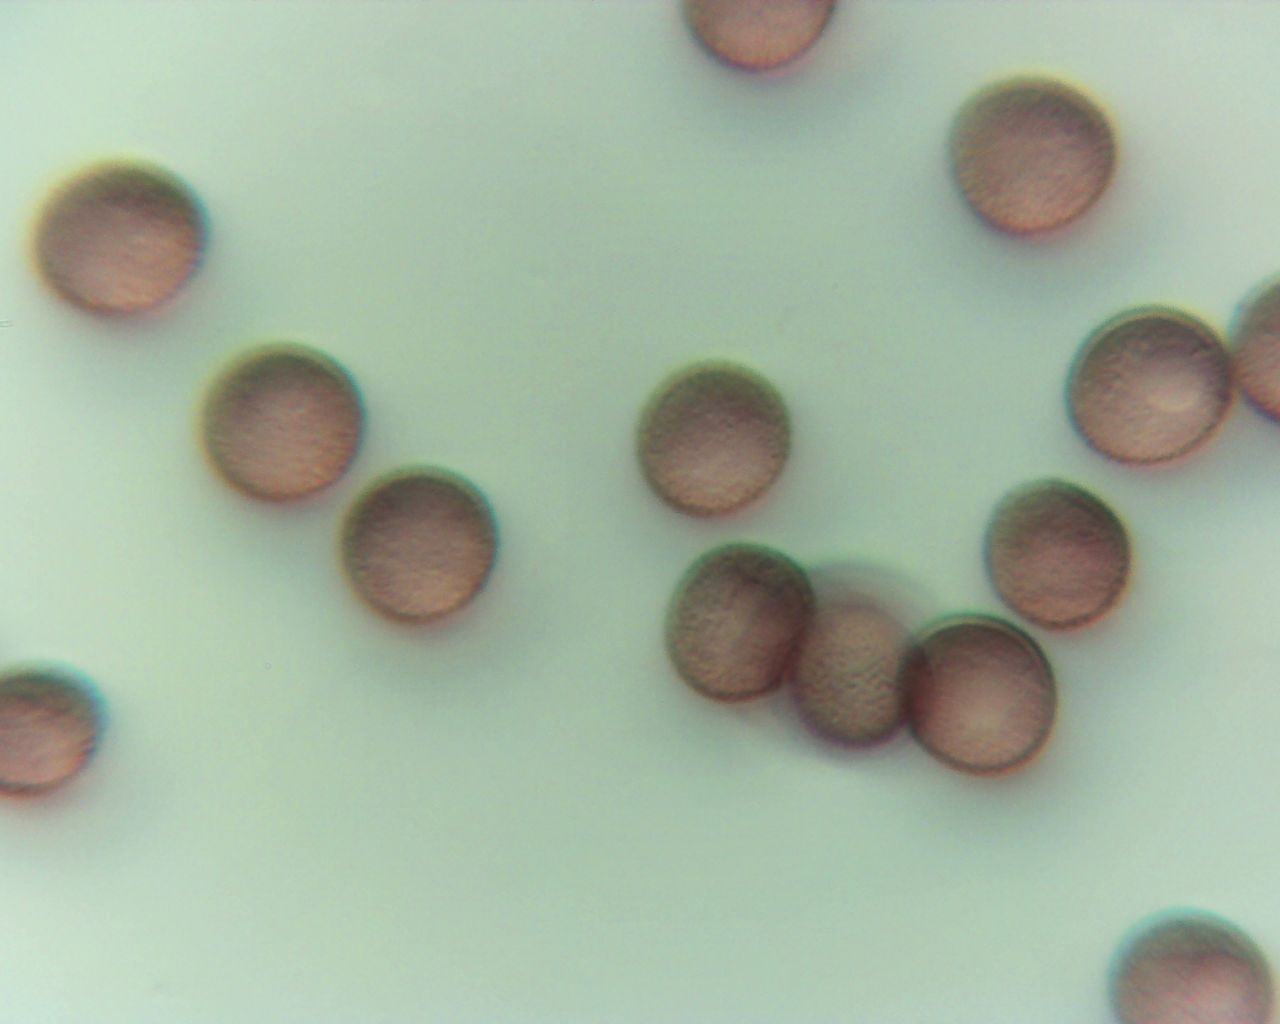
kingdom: Protozoa
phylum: Mycetozoa
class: Myxomycetes
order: Physarales
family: Physaraceae
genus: Physarum
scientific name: Physarum album
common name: nikkende støvknop
